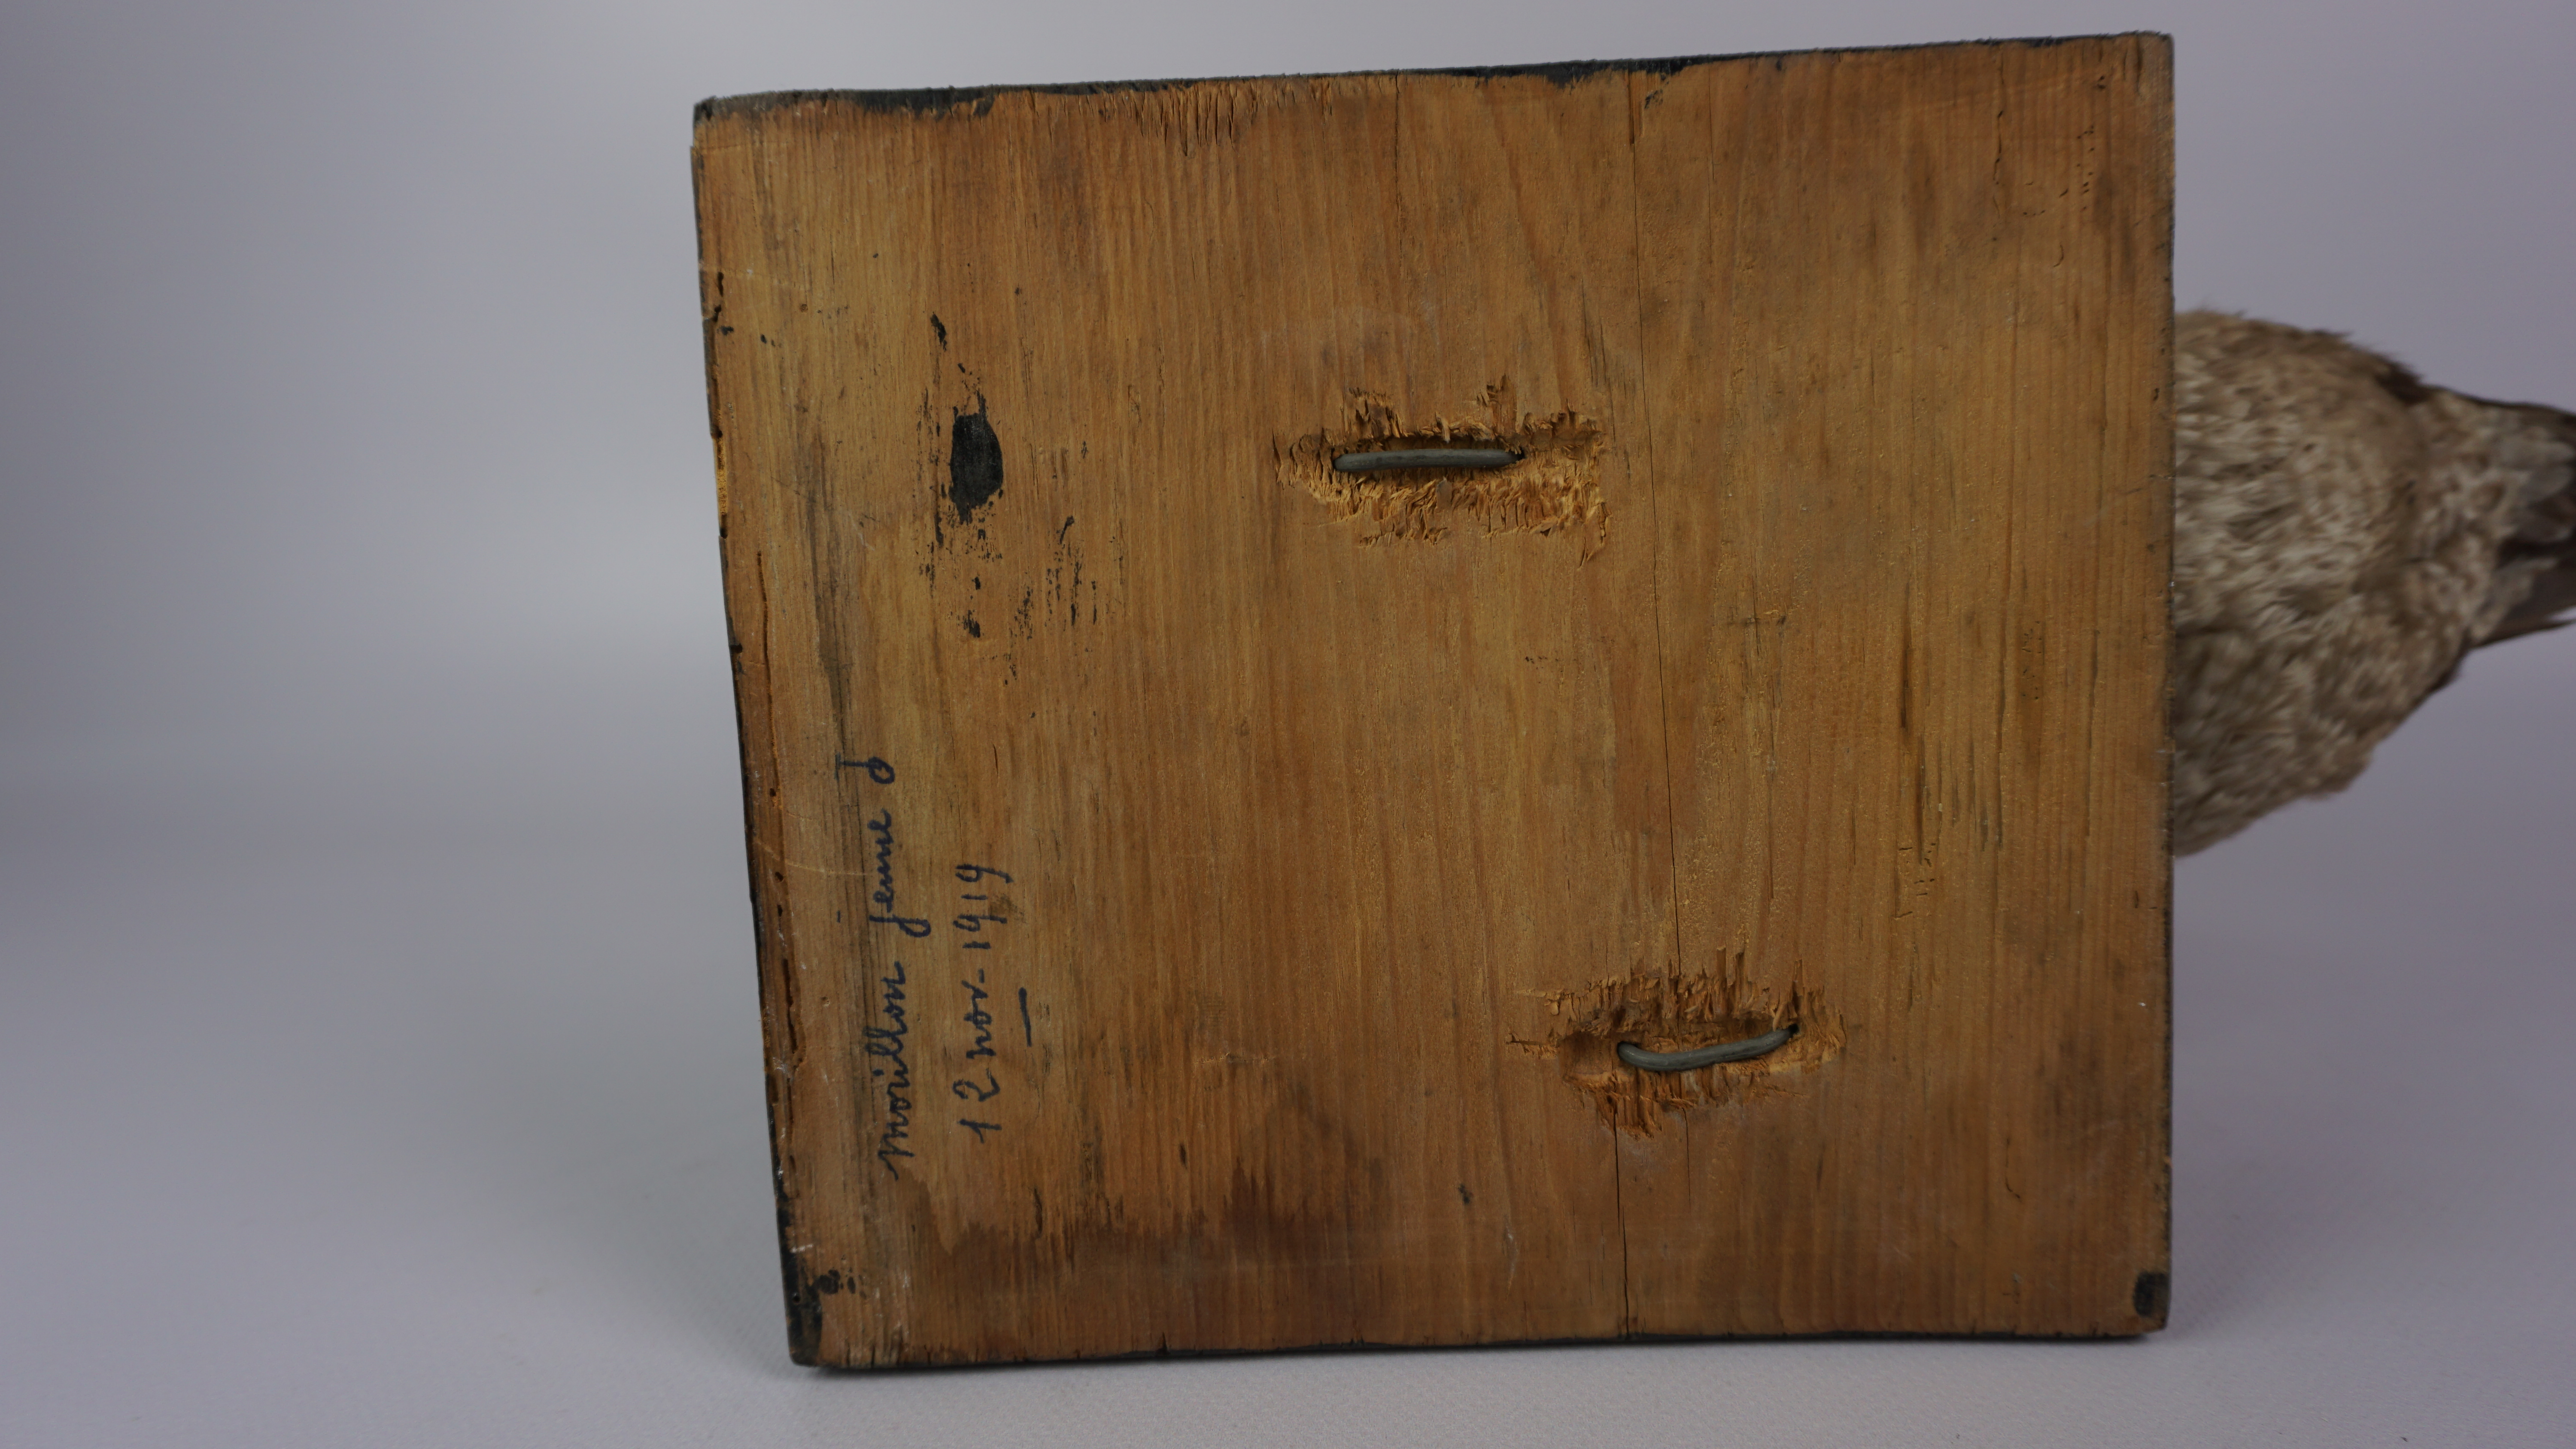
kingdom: Animalia
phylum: Chordata
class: Aves
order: Anseriformes
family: Anatidae
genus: Aythya
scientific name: Aythya fuligula
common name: Tufted duck
